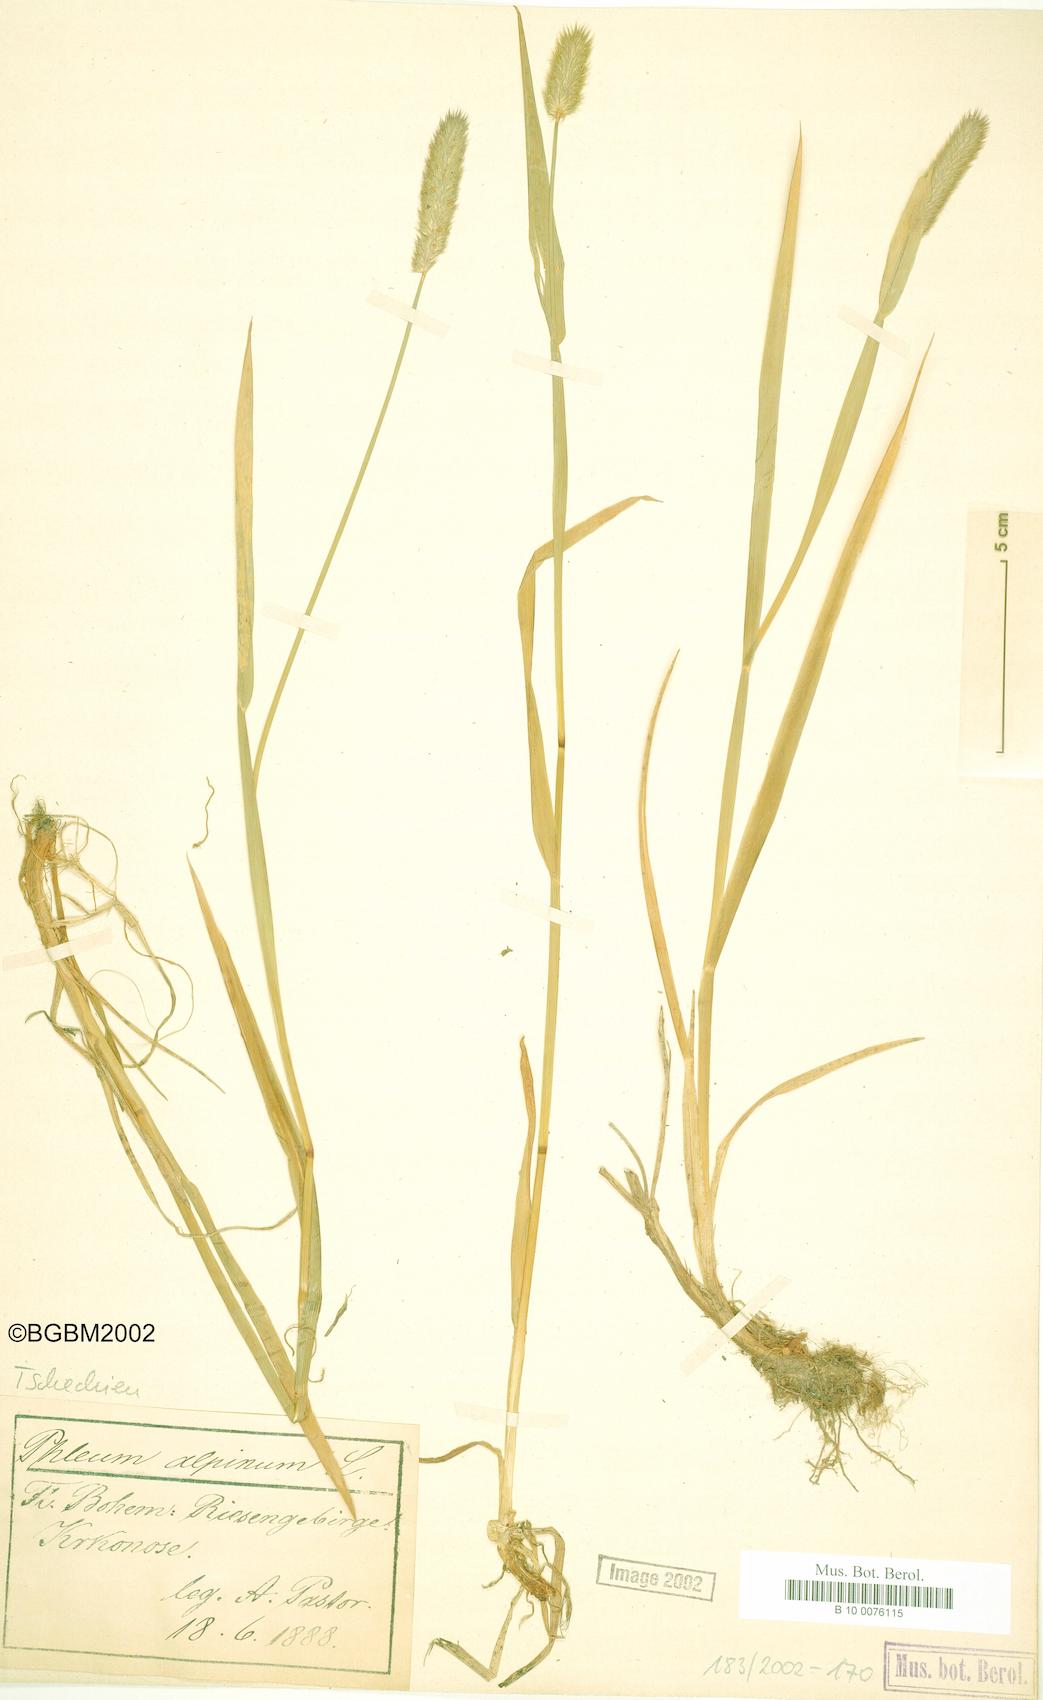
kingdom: Plantae
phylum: Tracheophyta
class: Liliopsida
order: Poales
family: Poaceae
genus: Phleum
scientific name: Phleum alpinum
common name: Alpine cat's-tail
